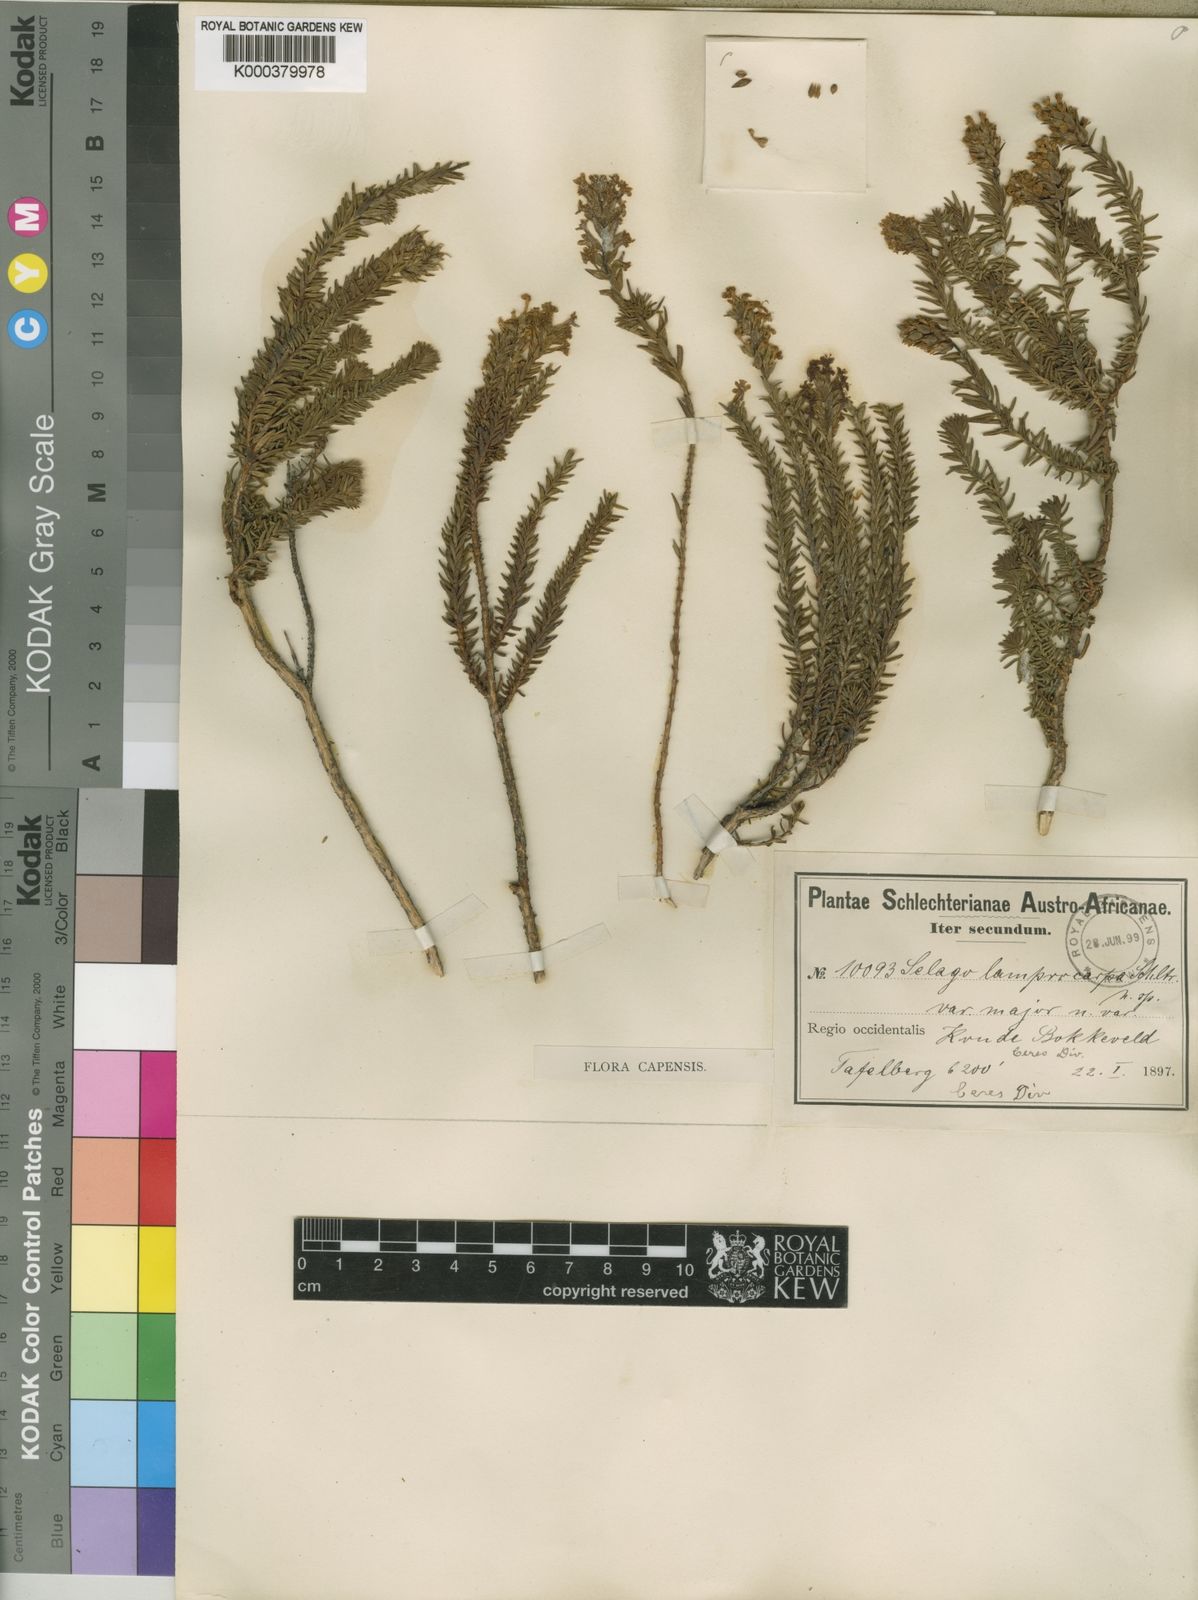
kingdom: Plantae
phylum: Tracheophyta
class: Magnoliopsida
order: Lamiales
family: Scrophulariaceae
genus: Selago
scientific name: Selago lamprocarpa
